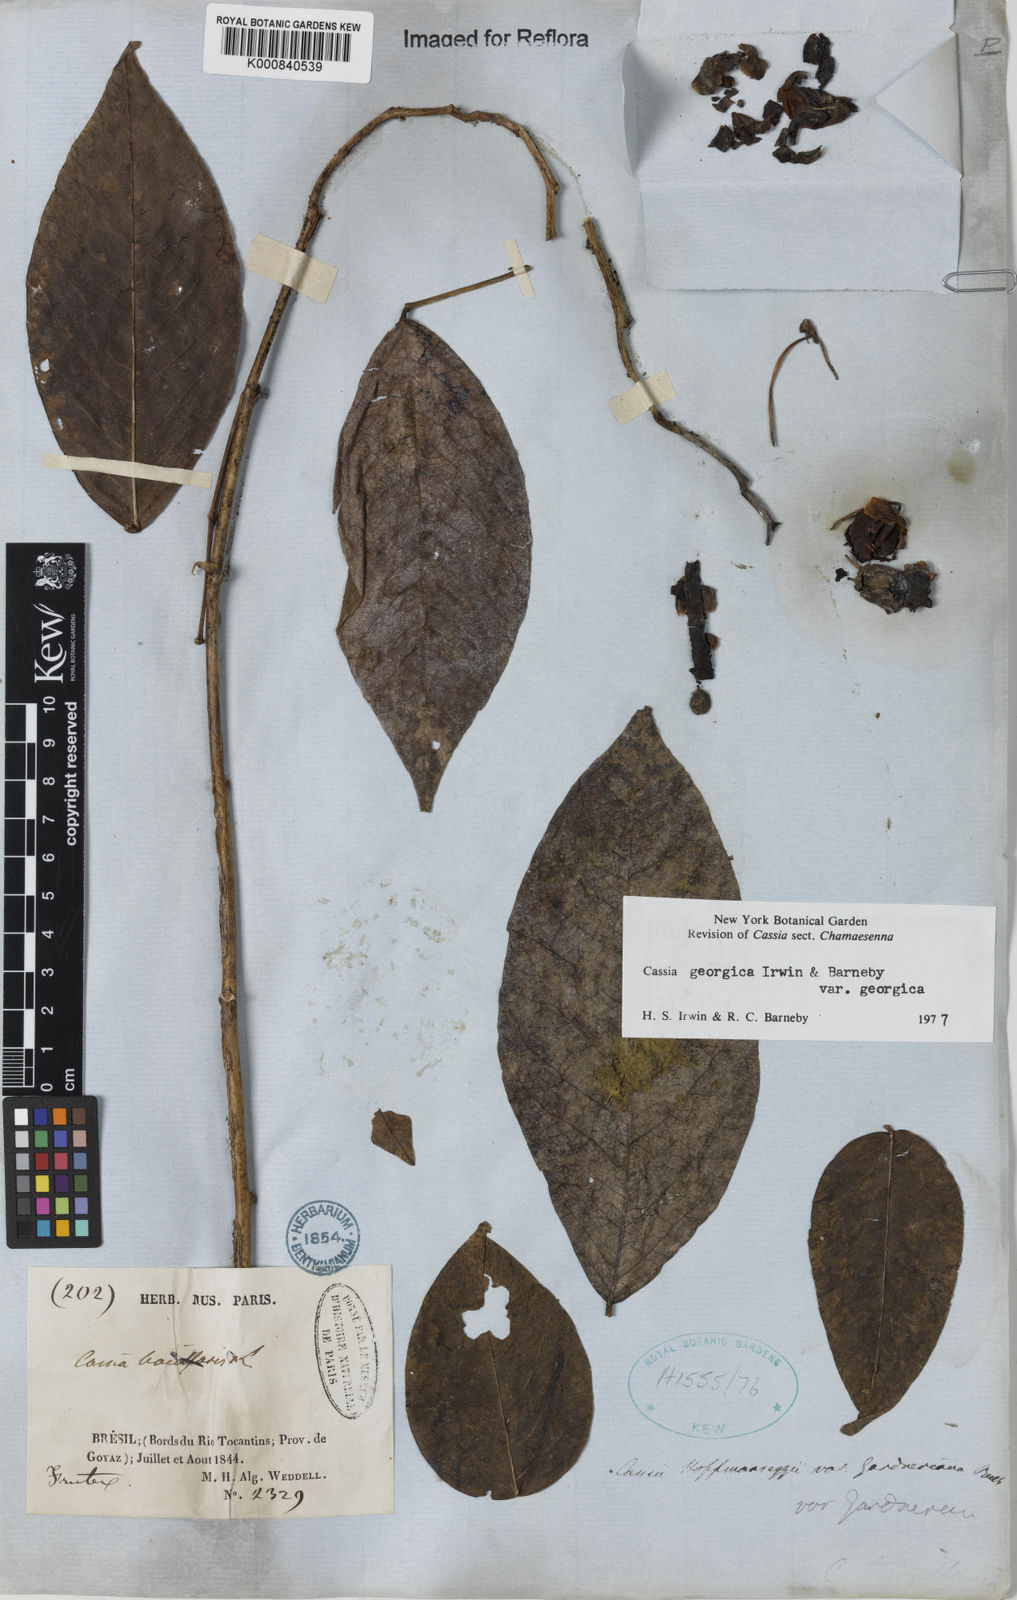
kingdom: Plantae
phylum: Tracheophyta
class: Magnoliopsida
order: Fabales
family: Fabaceae
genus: Senna
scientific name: Senna georgica
